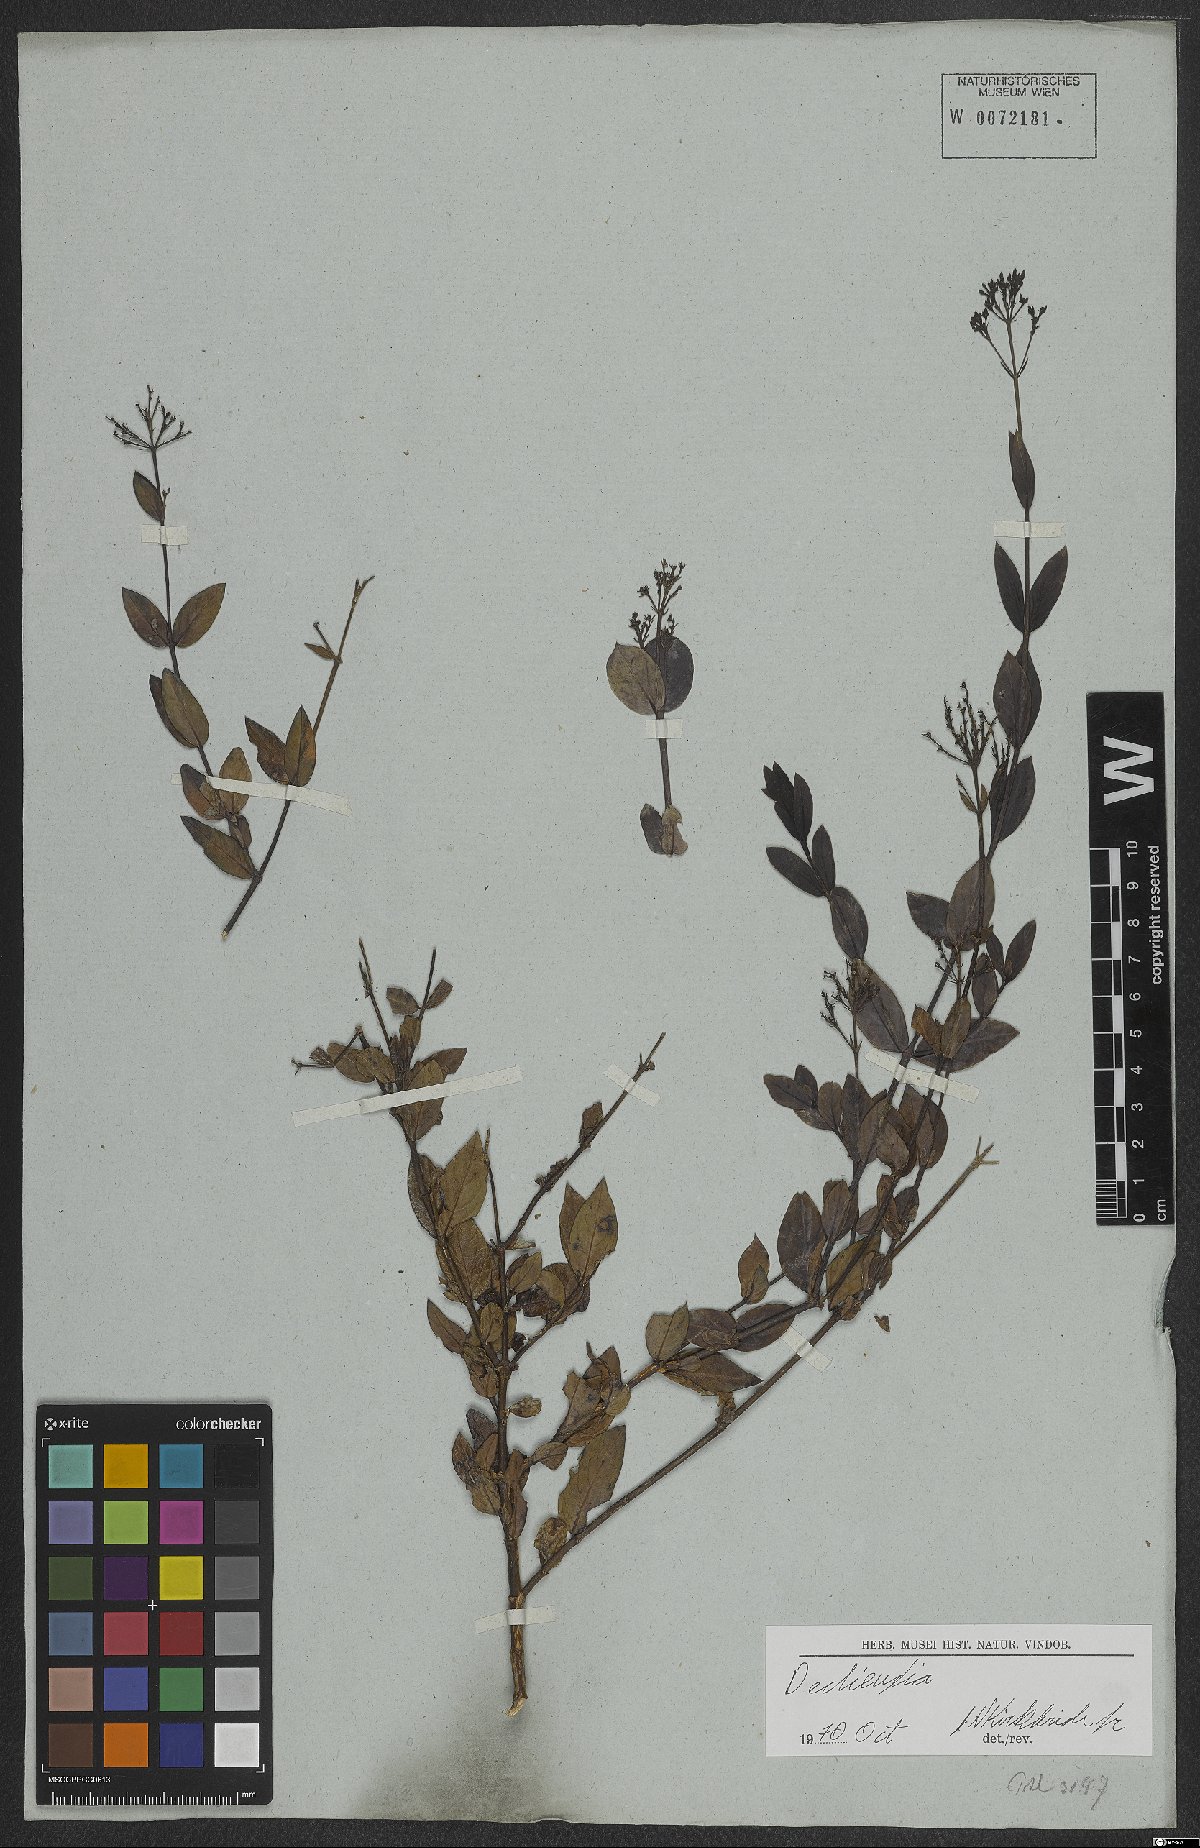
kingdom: Plantae
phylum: Tracheophyta
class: Magnoliopsida
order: Gentianales
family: Rubiaceae
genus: Declieuxia
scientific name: Declieuxia
